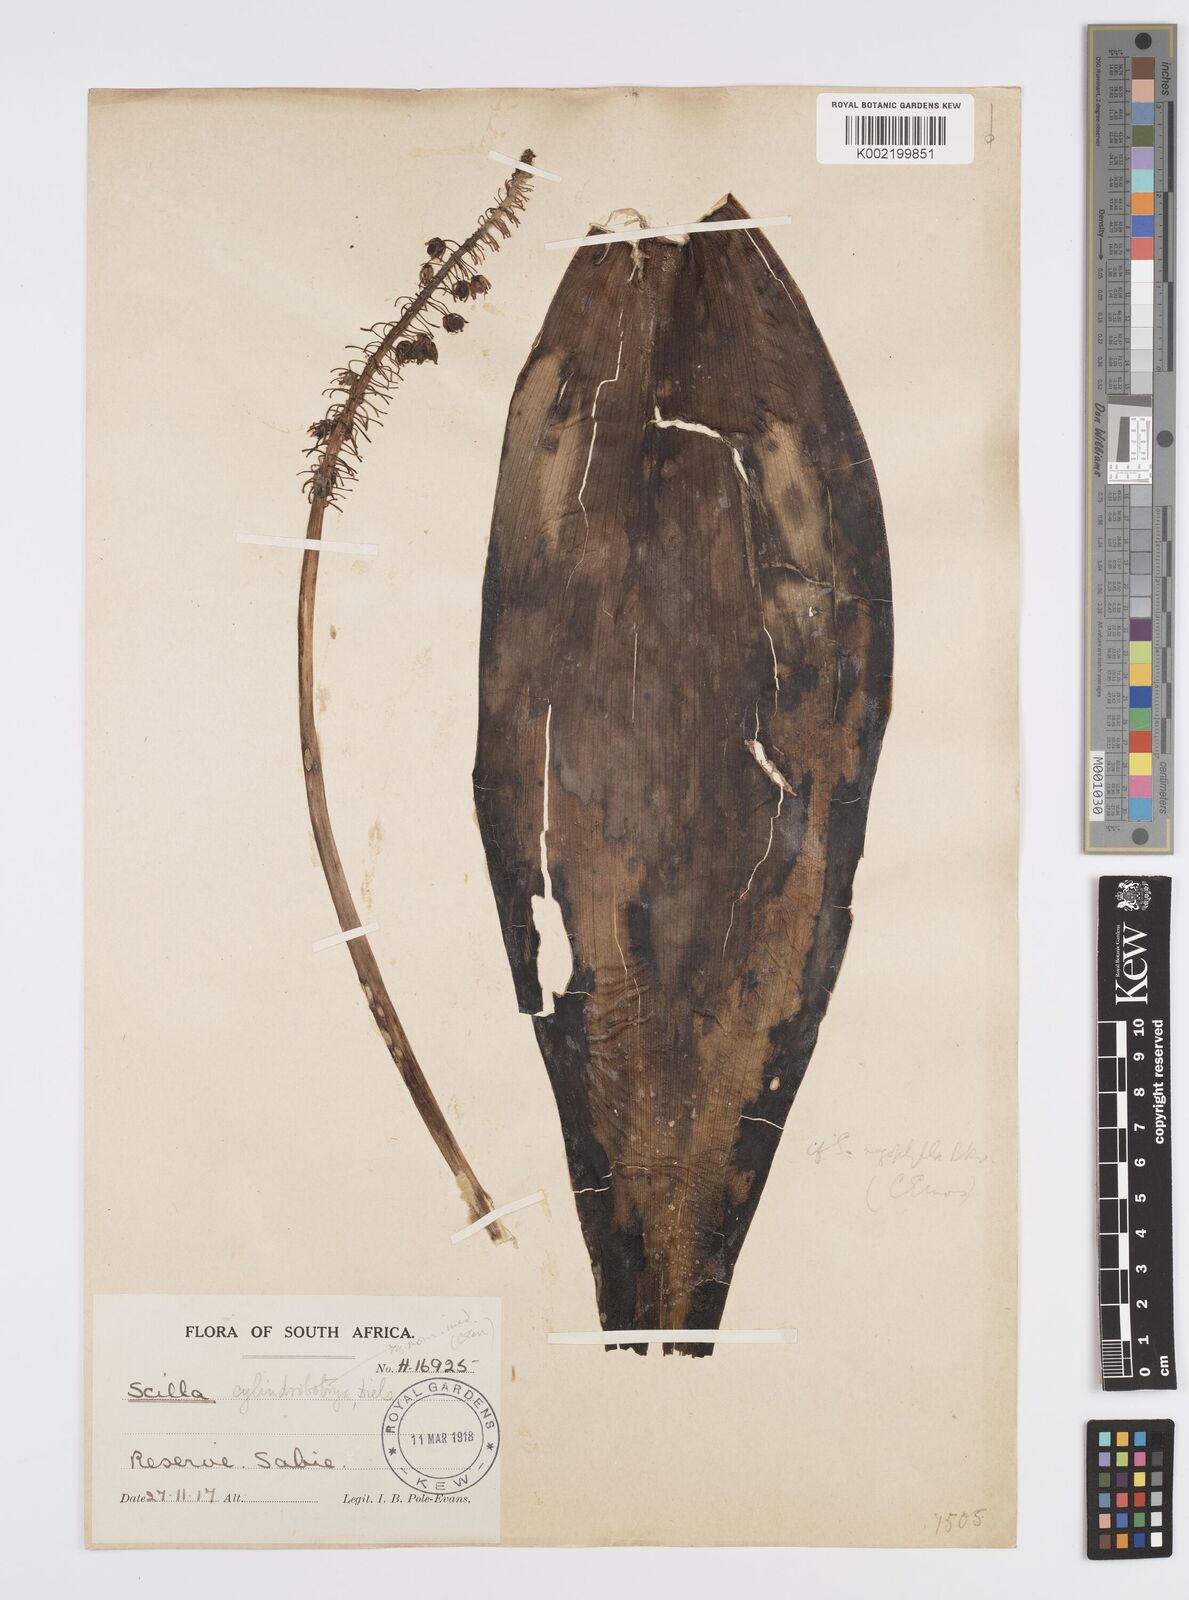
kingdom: Plantae
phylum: Tracheophyta
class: Liliopsida
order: Asparagales
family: Asparagaceae
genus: Ledebouria
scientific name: Ledebouria floribunda
